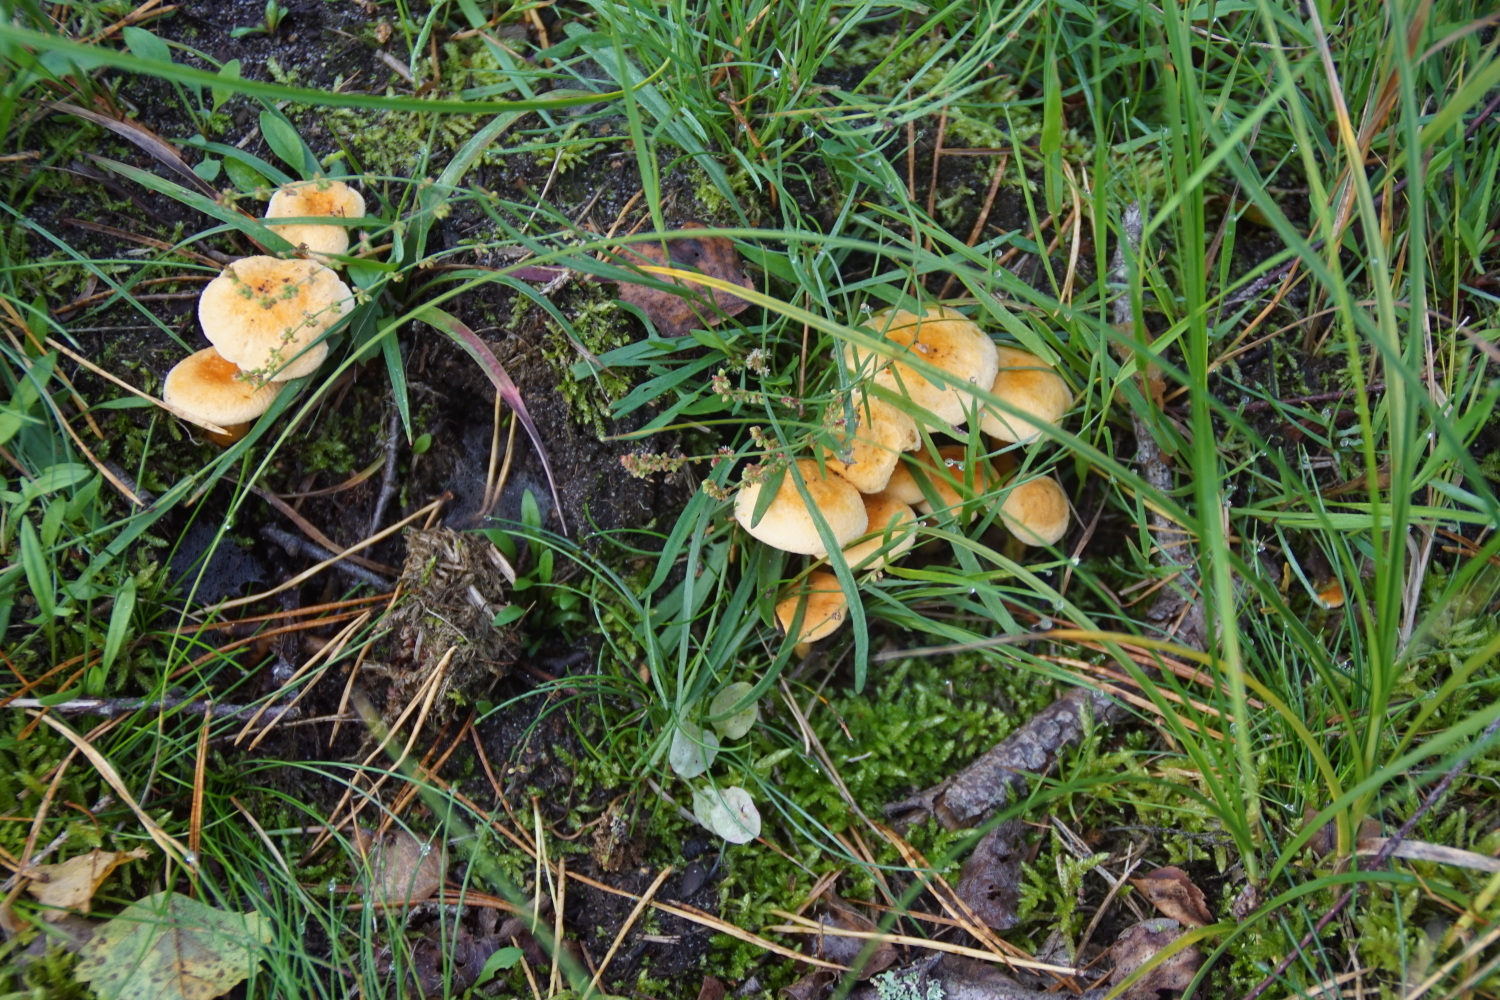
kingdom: Fungi
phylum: Basidiomycota
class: Agaricomycetes
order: Boletales
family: Hygrophoropsidaceae
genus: Hygrophoropsis
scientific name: Hygrophoropsis aurantiaca
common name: almindelig orangekantarel
